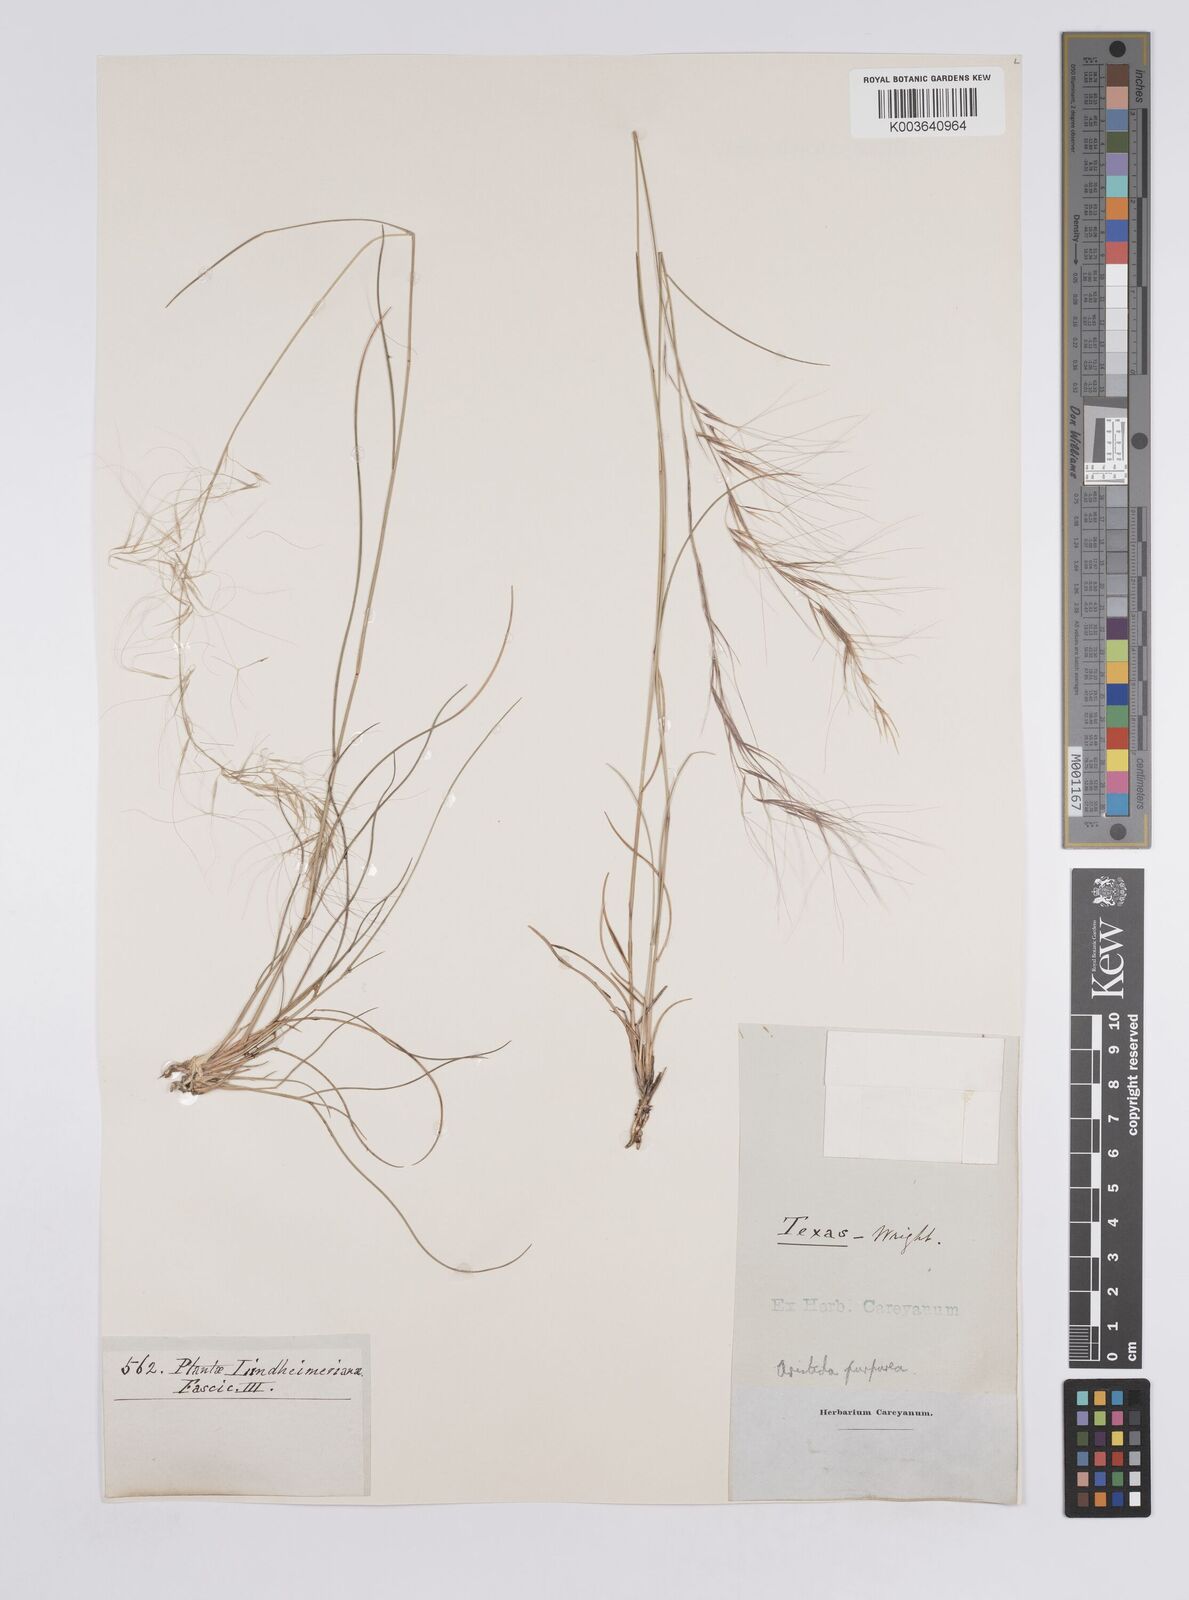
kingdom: Plantae
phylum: Tracheophyta
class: Liliopsida
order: Poales
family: Poaceae
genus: Aristida
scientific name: Aristida purpurea
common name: Purple threeawn
